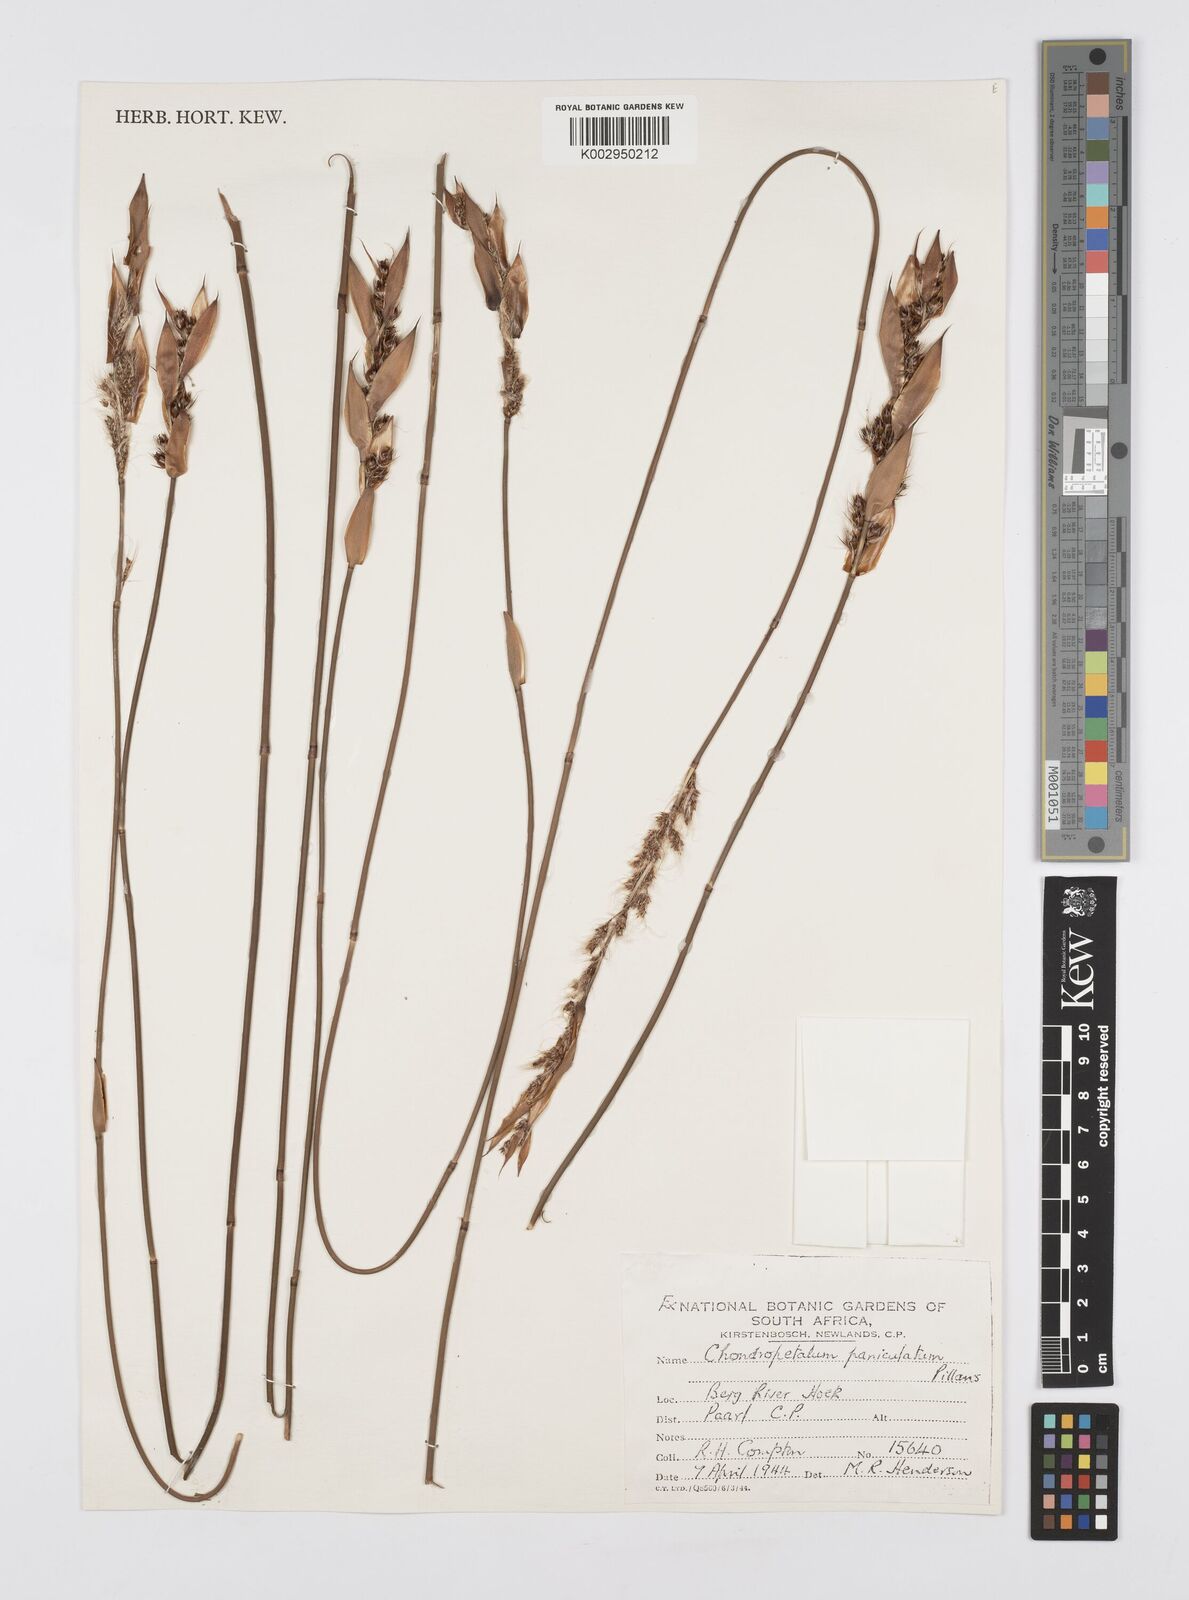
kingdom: Plantae
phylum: Tracheophyta
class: Liliopsida
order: Poales
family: Restionaceae
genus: Askidiosperma
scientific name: Askidiosperma paniculatum
